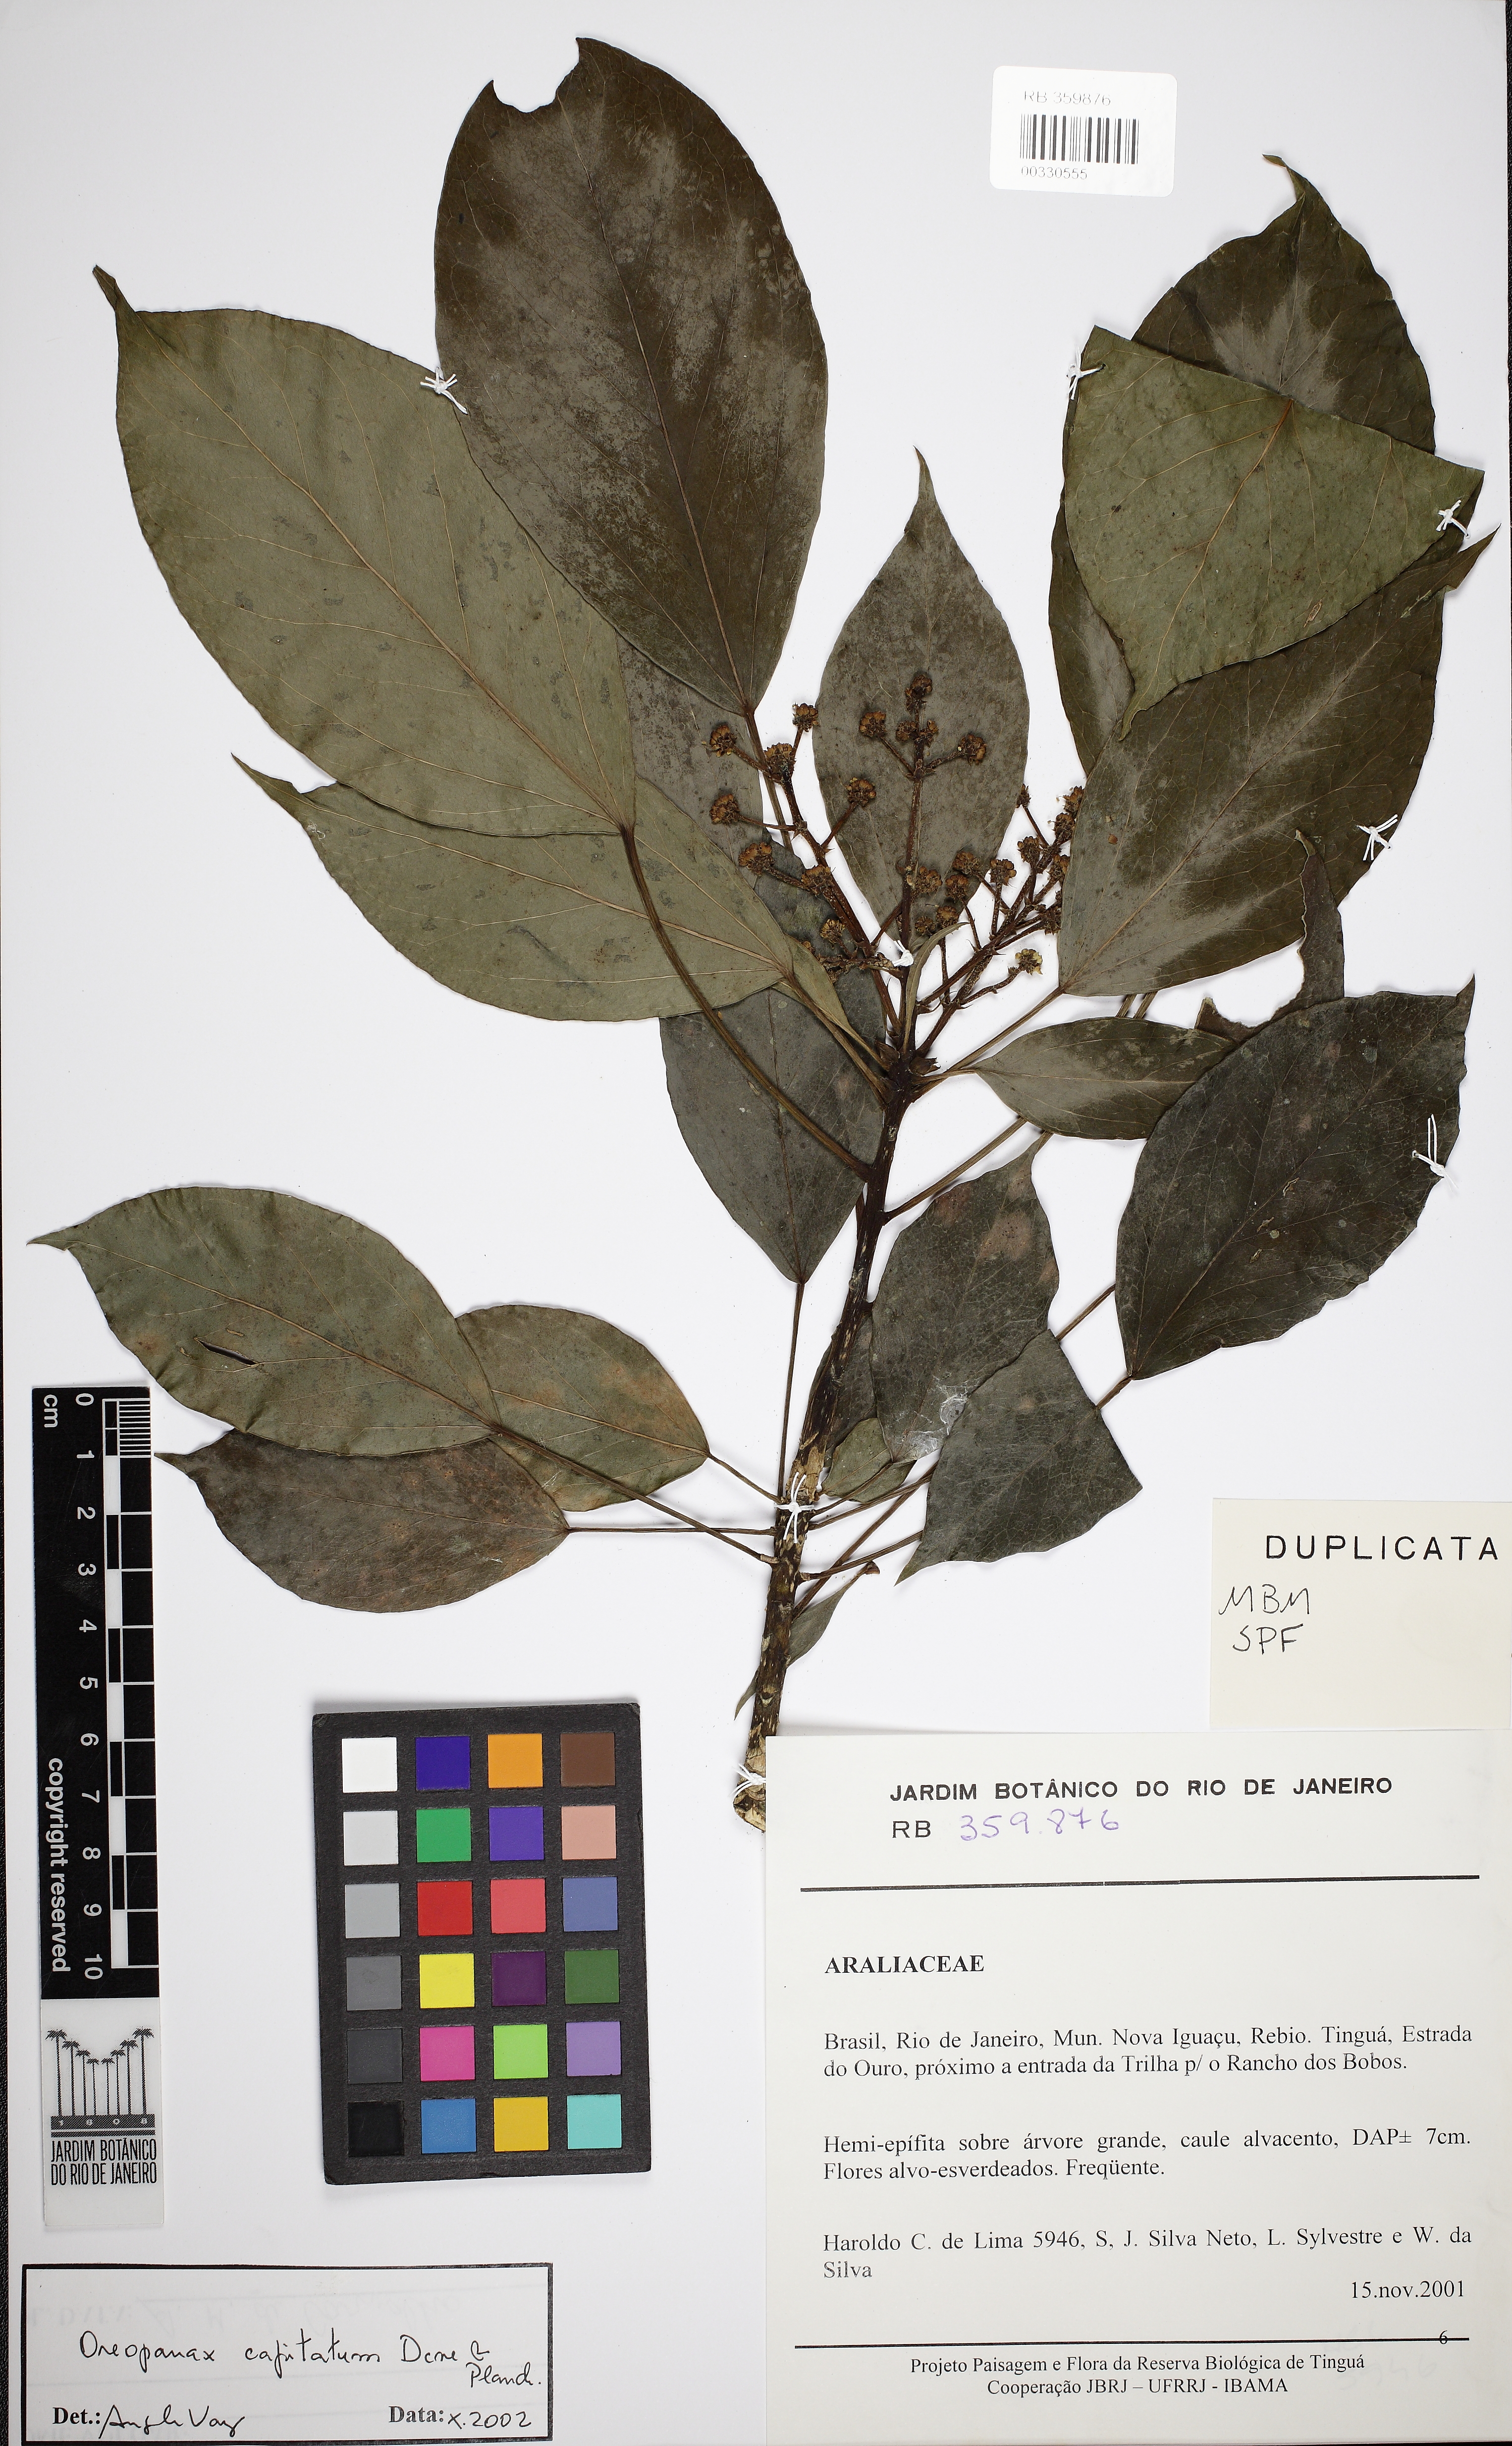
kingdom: Plantae
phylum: Tracheophyta
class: Magnoliopsida
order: Apiales
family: Araliaceae
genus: Oreopanax
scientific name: Oreopanax capitatus
